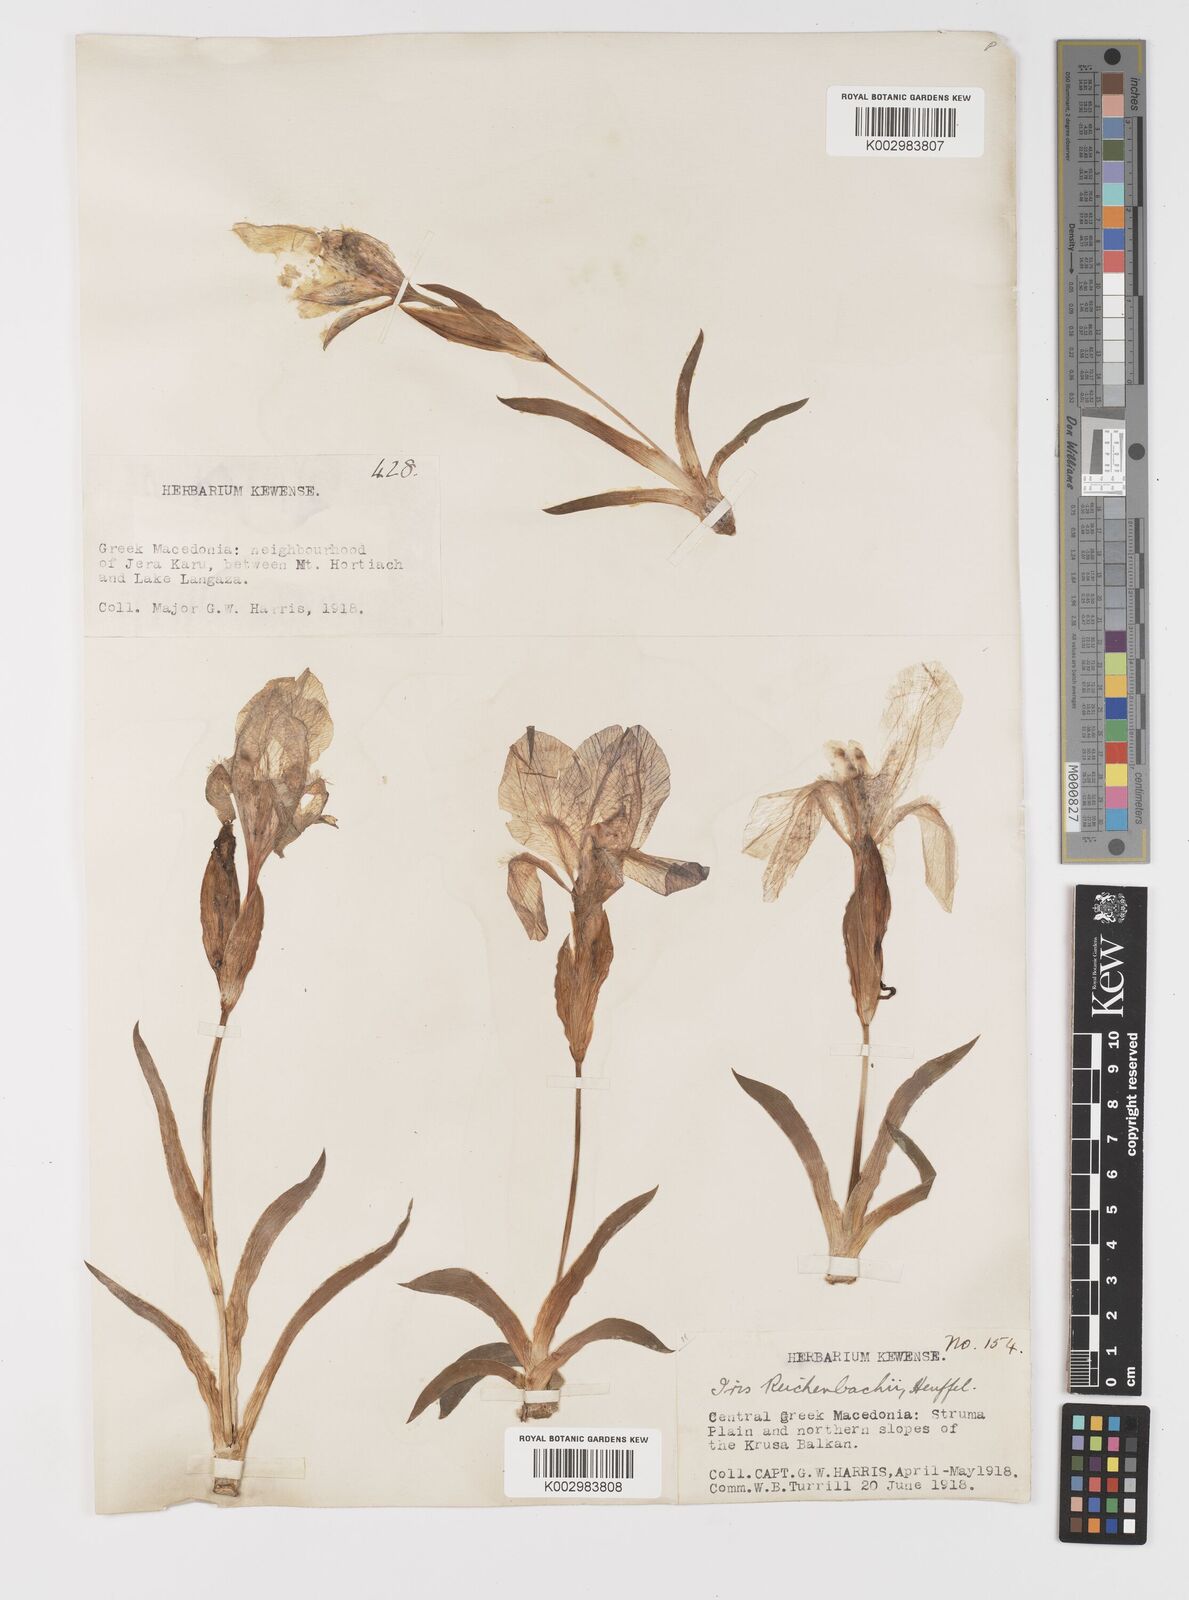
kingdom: Plantae
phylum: Tracheophyta
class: Liliopsida
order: Asparagales
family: Iridaceae
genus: Iris
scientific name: Iris reichenbachii
